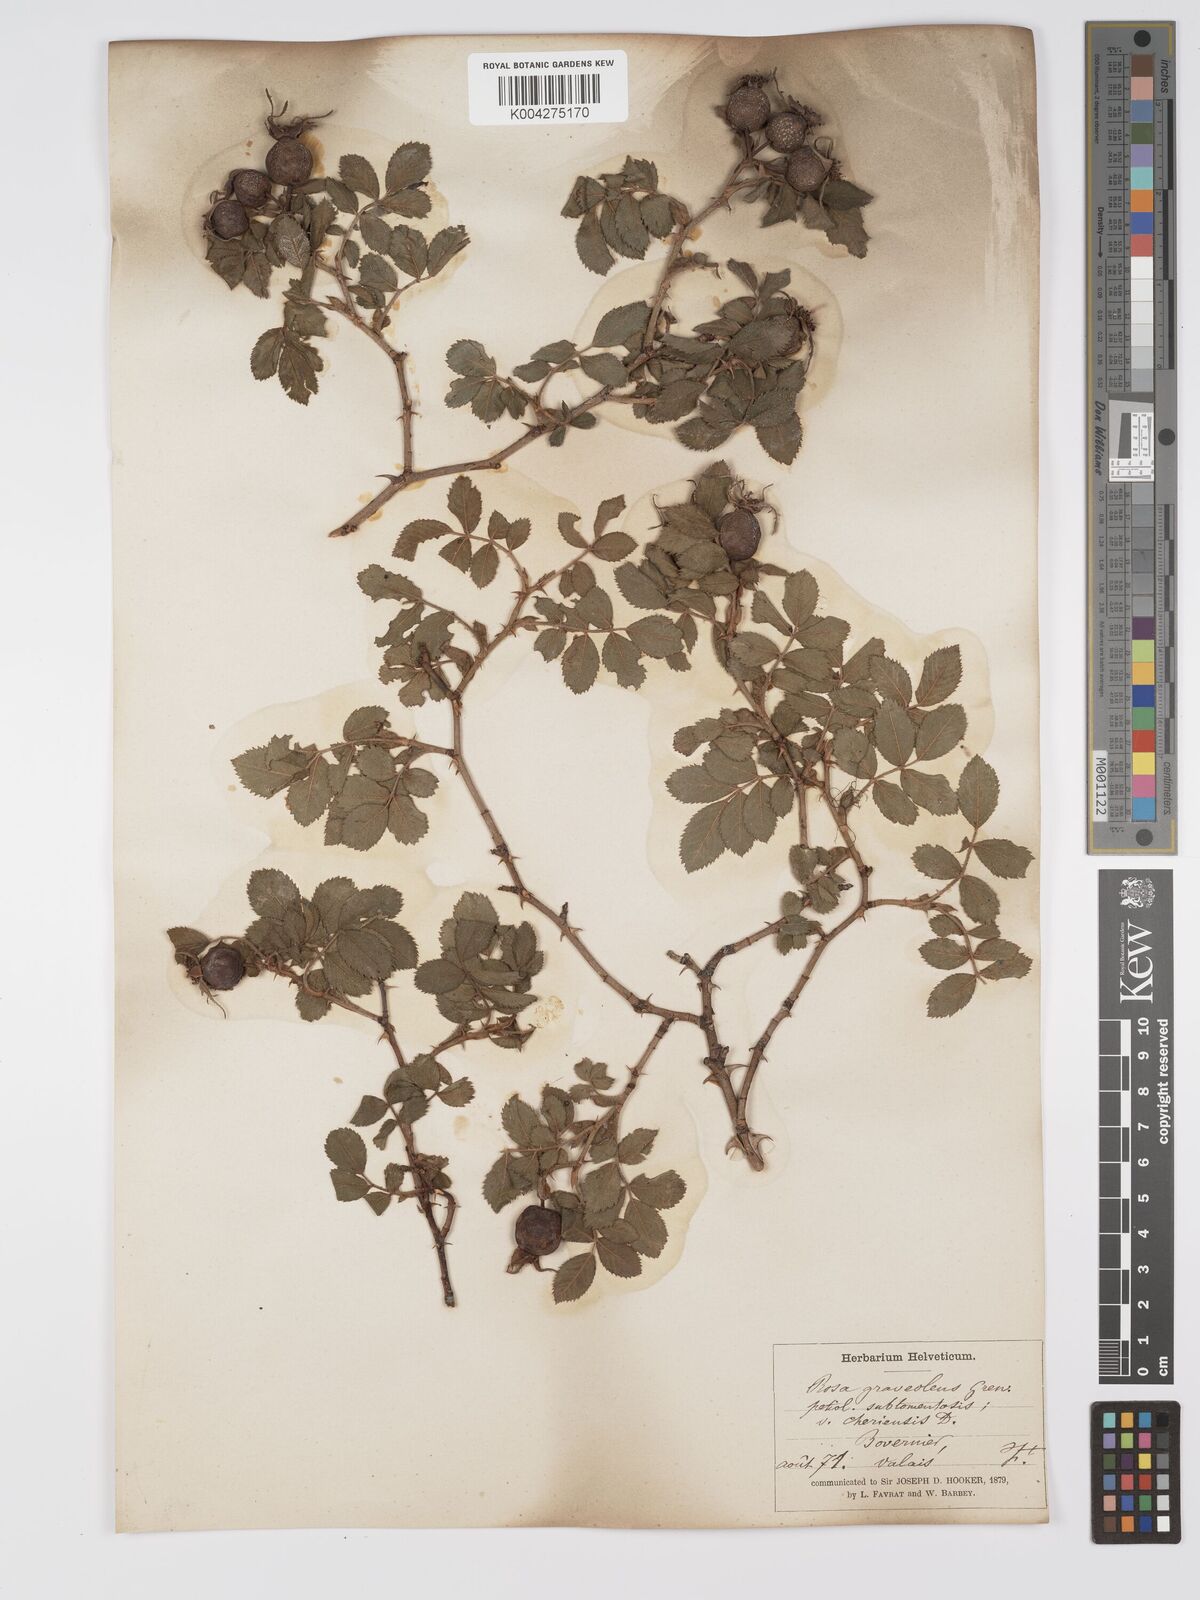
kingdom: Plantae
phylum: Tracheophyta
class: Magnoliopsida
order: Rosales
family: Rosaceae
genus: Rosa
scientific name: Rosa
